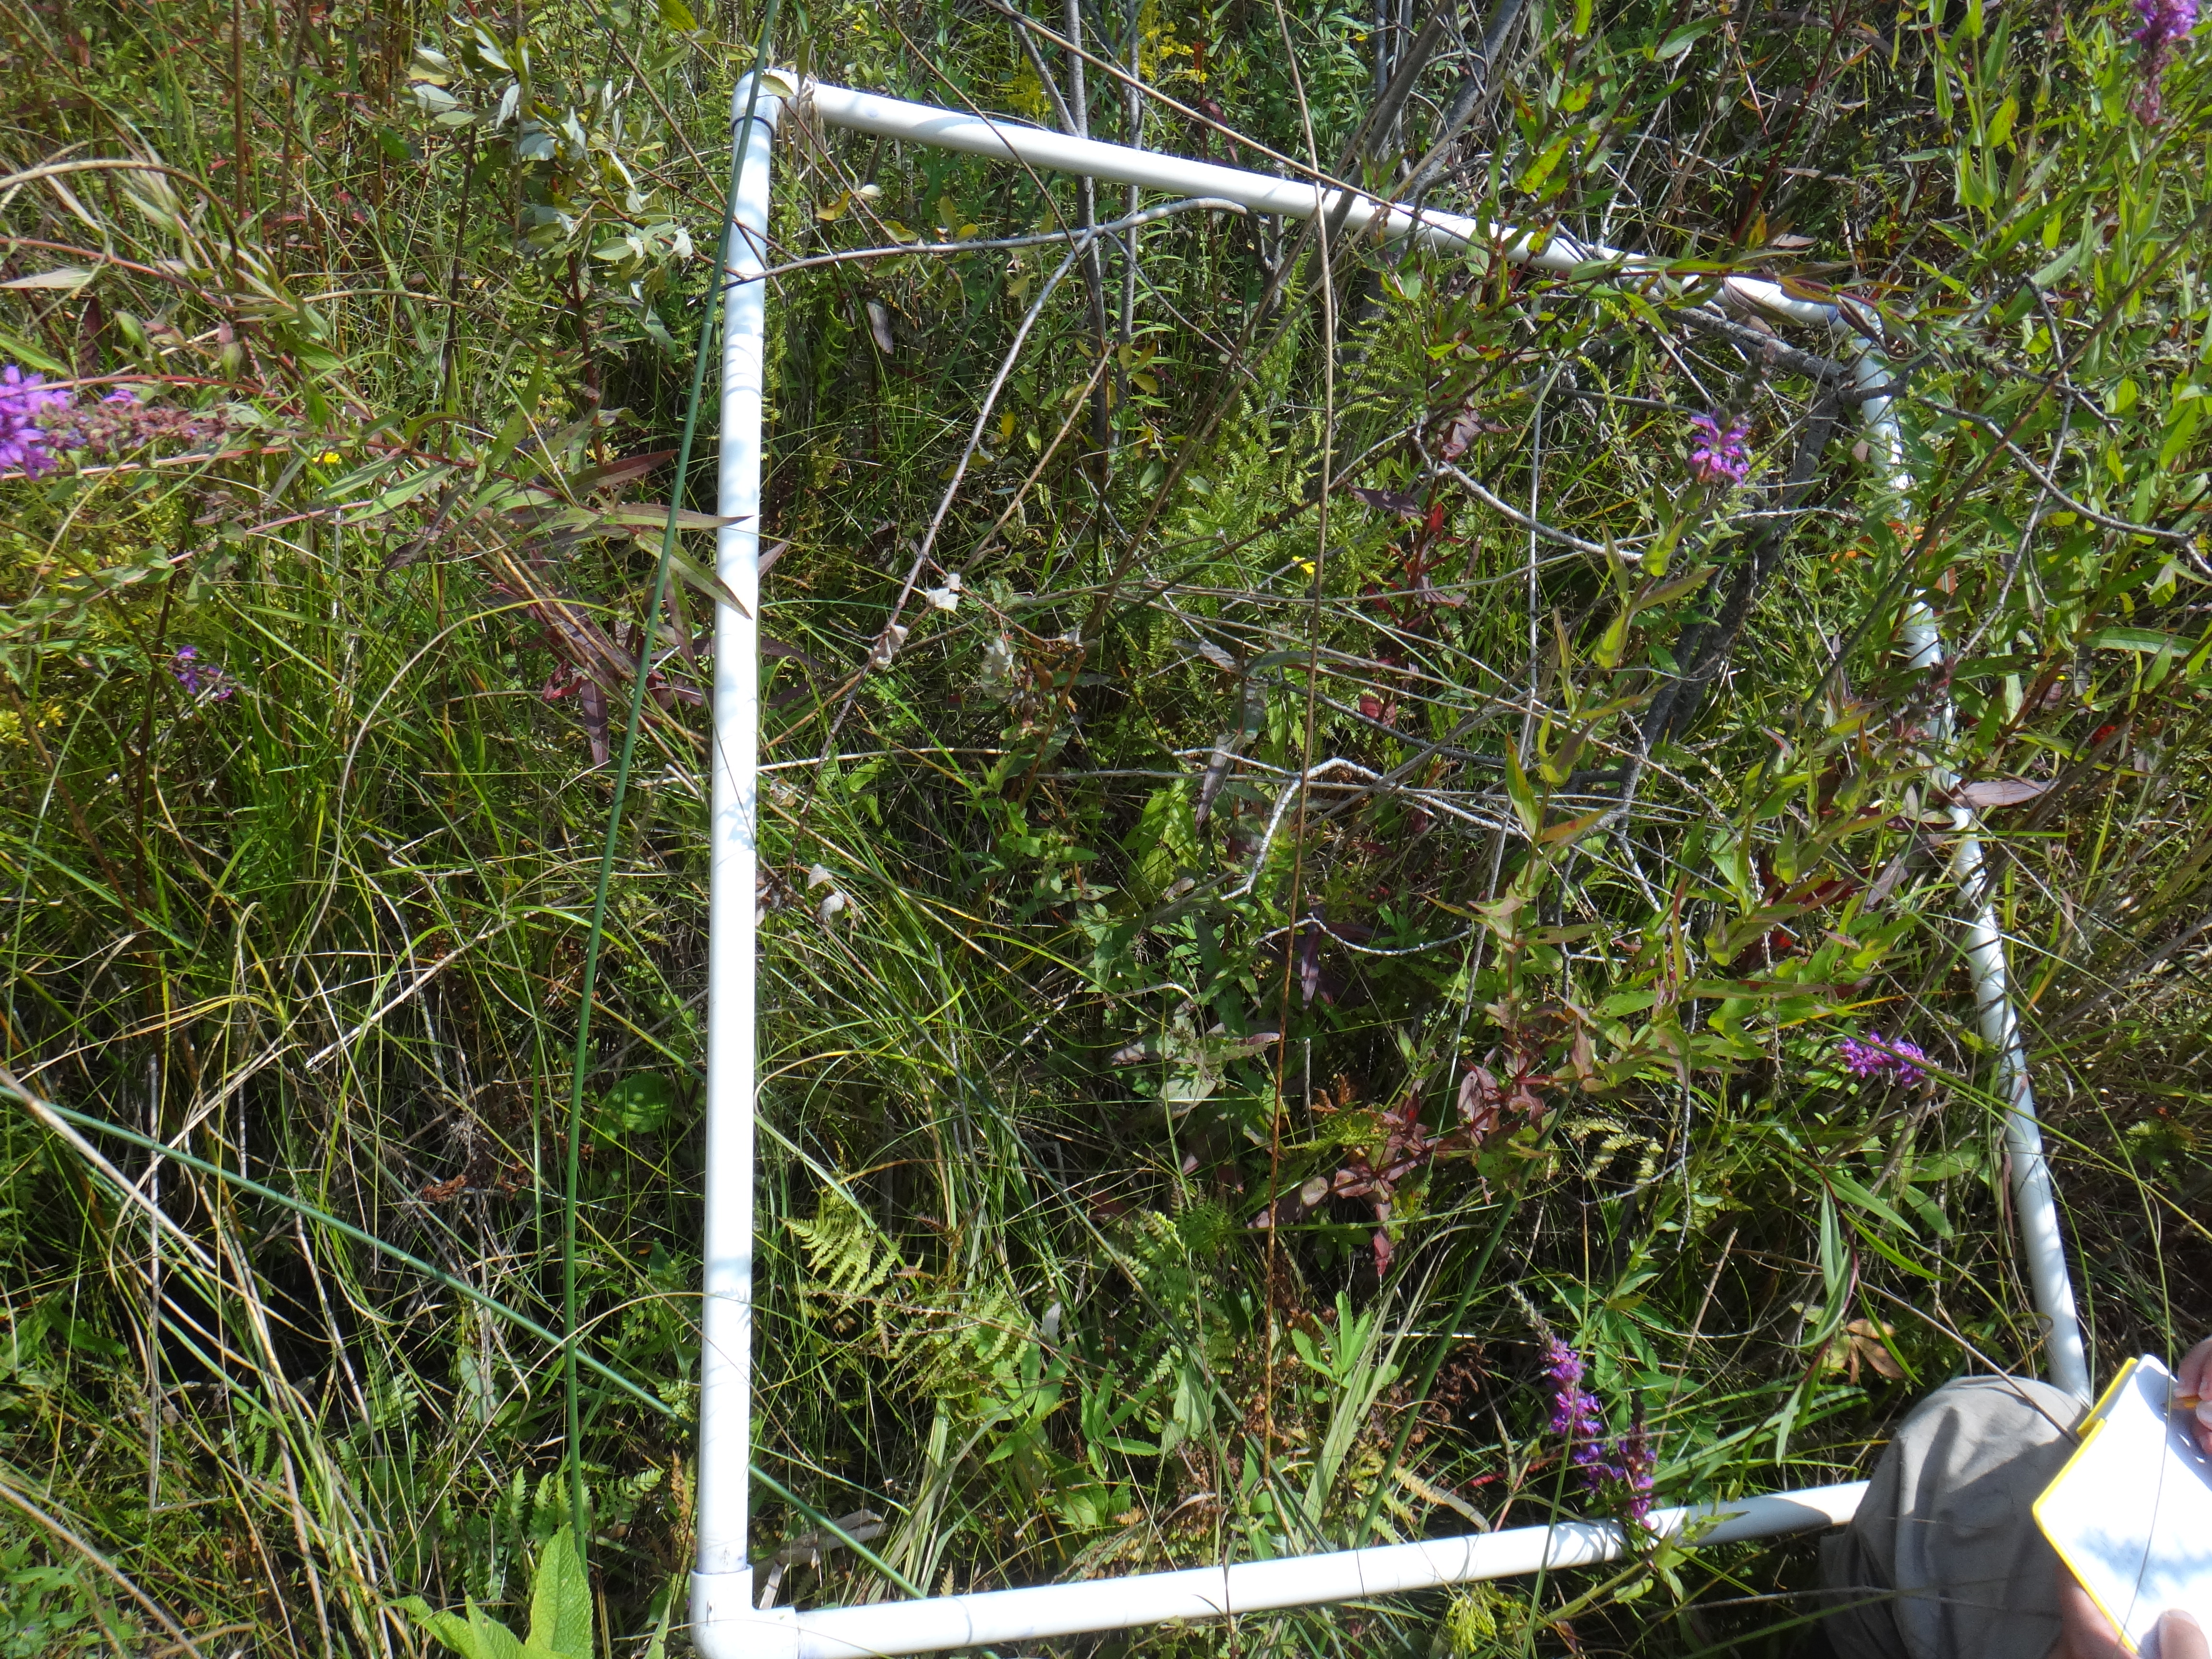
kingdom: Plantae
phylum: Tracheophyta
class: Liliopsida
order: Poales
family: Cyperaceae
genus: Schoenoplectus
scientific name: Schoenoplectus tabernaemontani
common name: Grey club-rush
